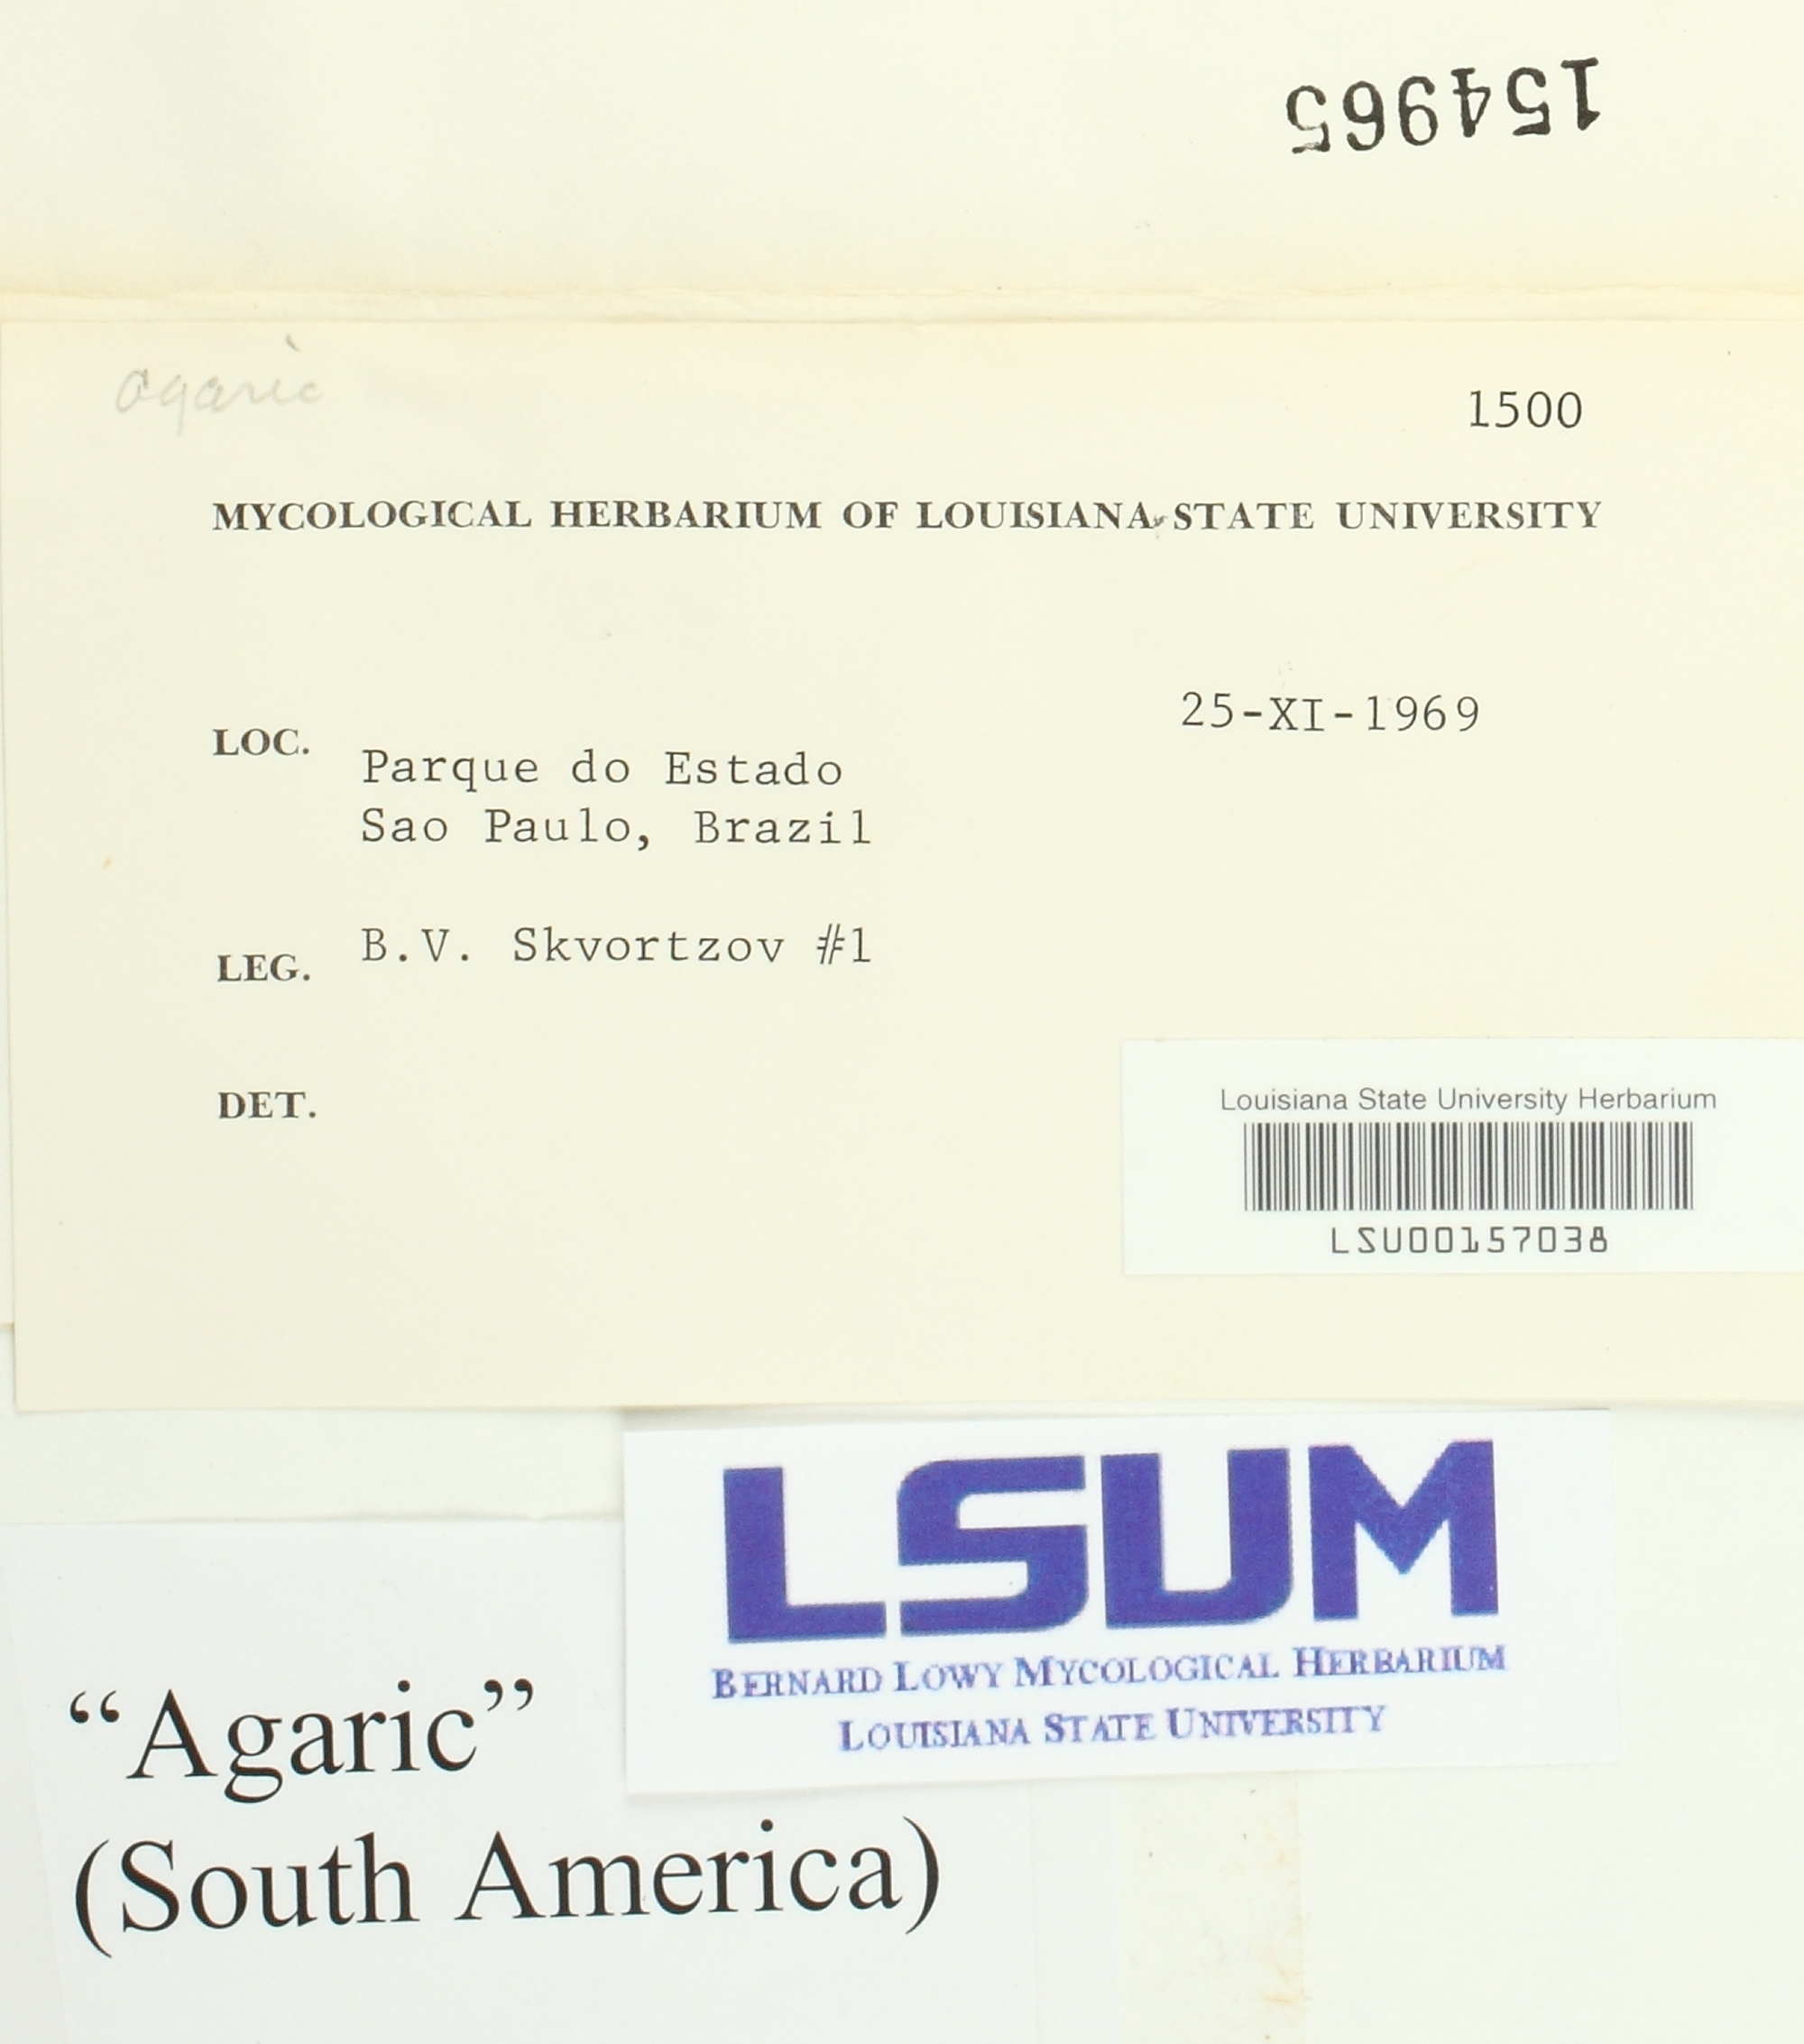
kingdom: Fungi
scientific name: Fungi
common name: Fungi
